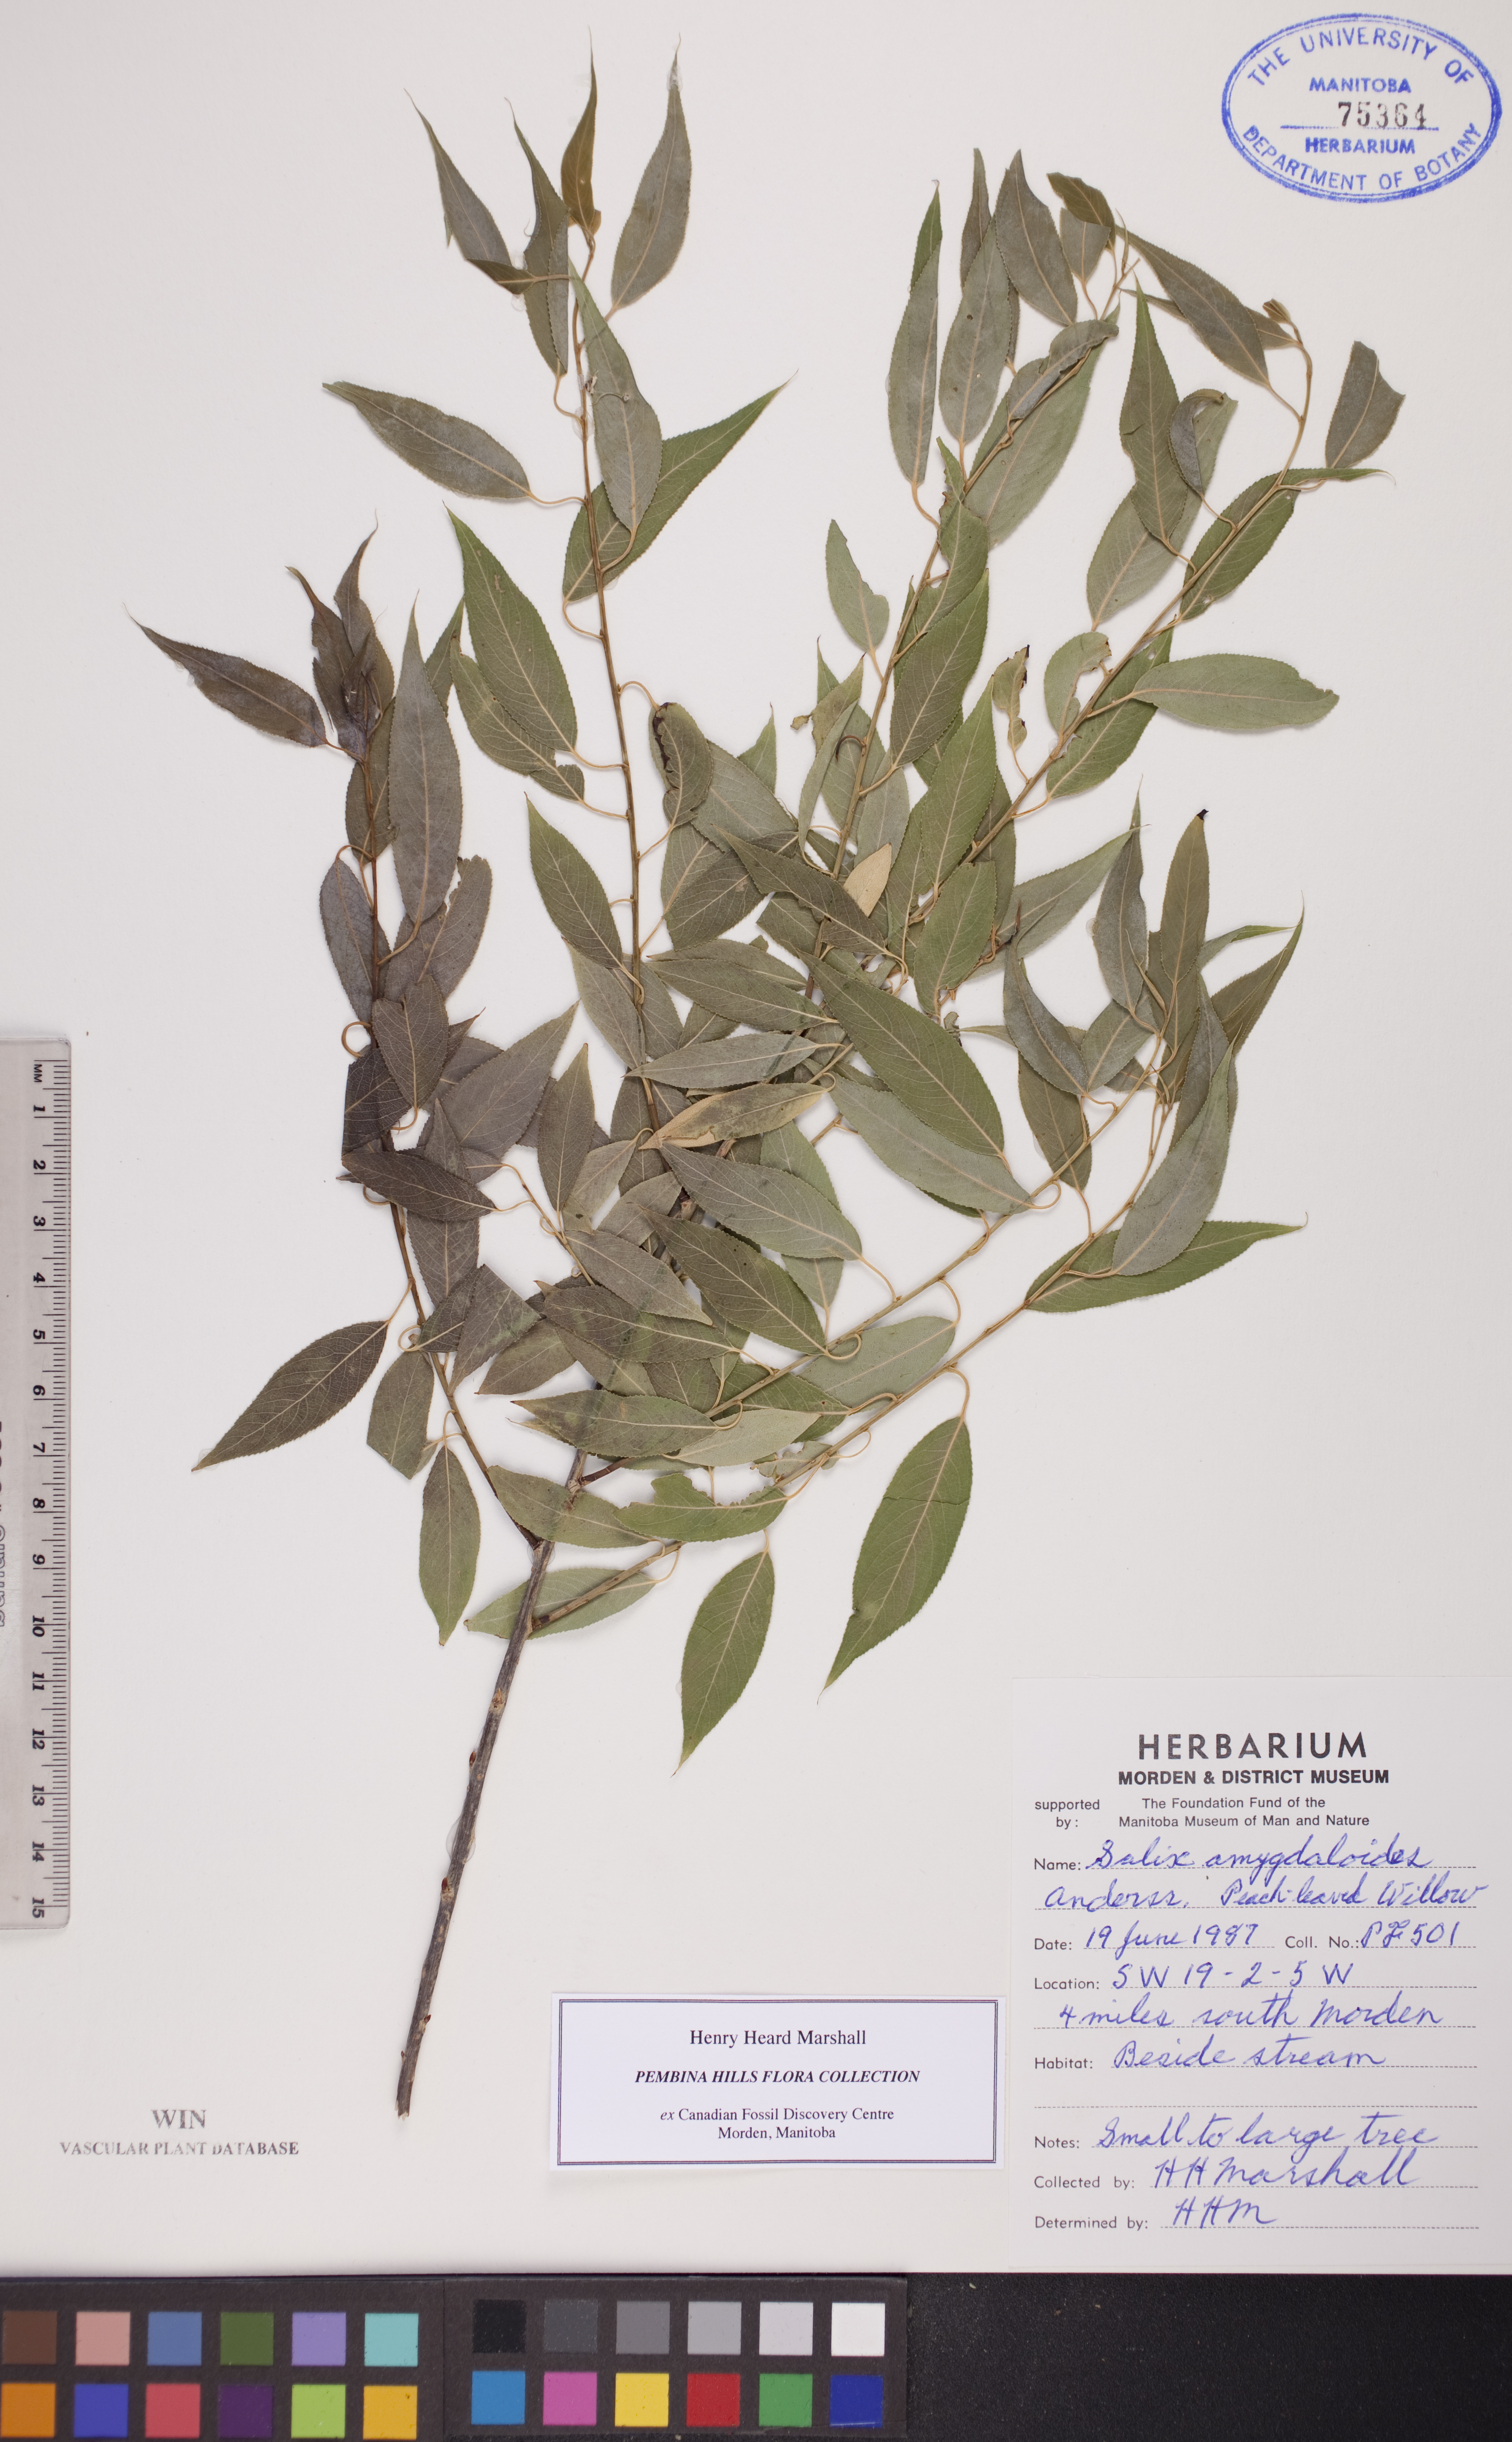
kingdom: Plantae
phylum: Tracheophyta
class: Magnoliopsida
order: Malpighiales
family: Salicaceae
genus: Salix
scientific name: Salix amygdaloides
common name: Peach leaf willow
